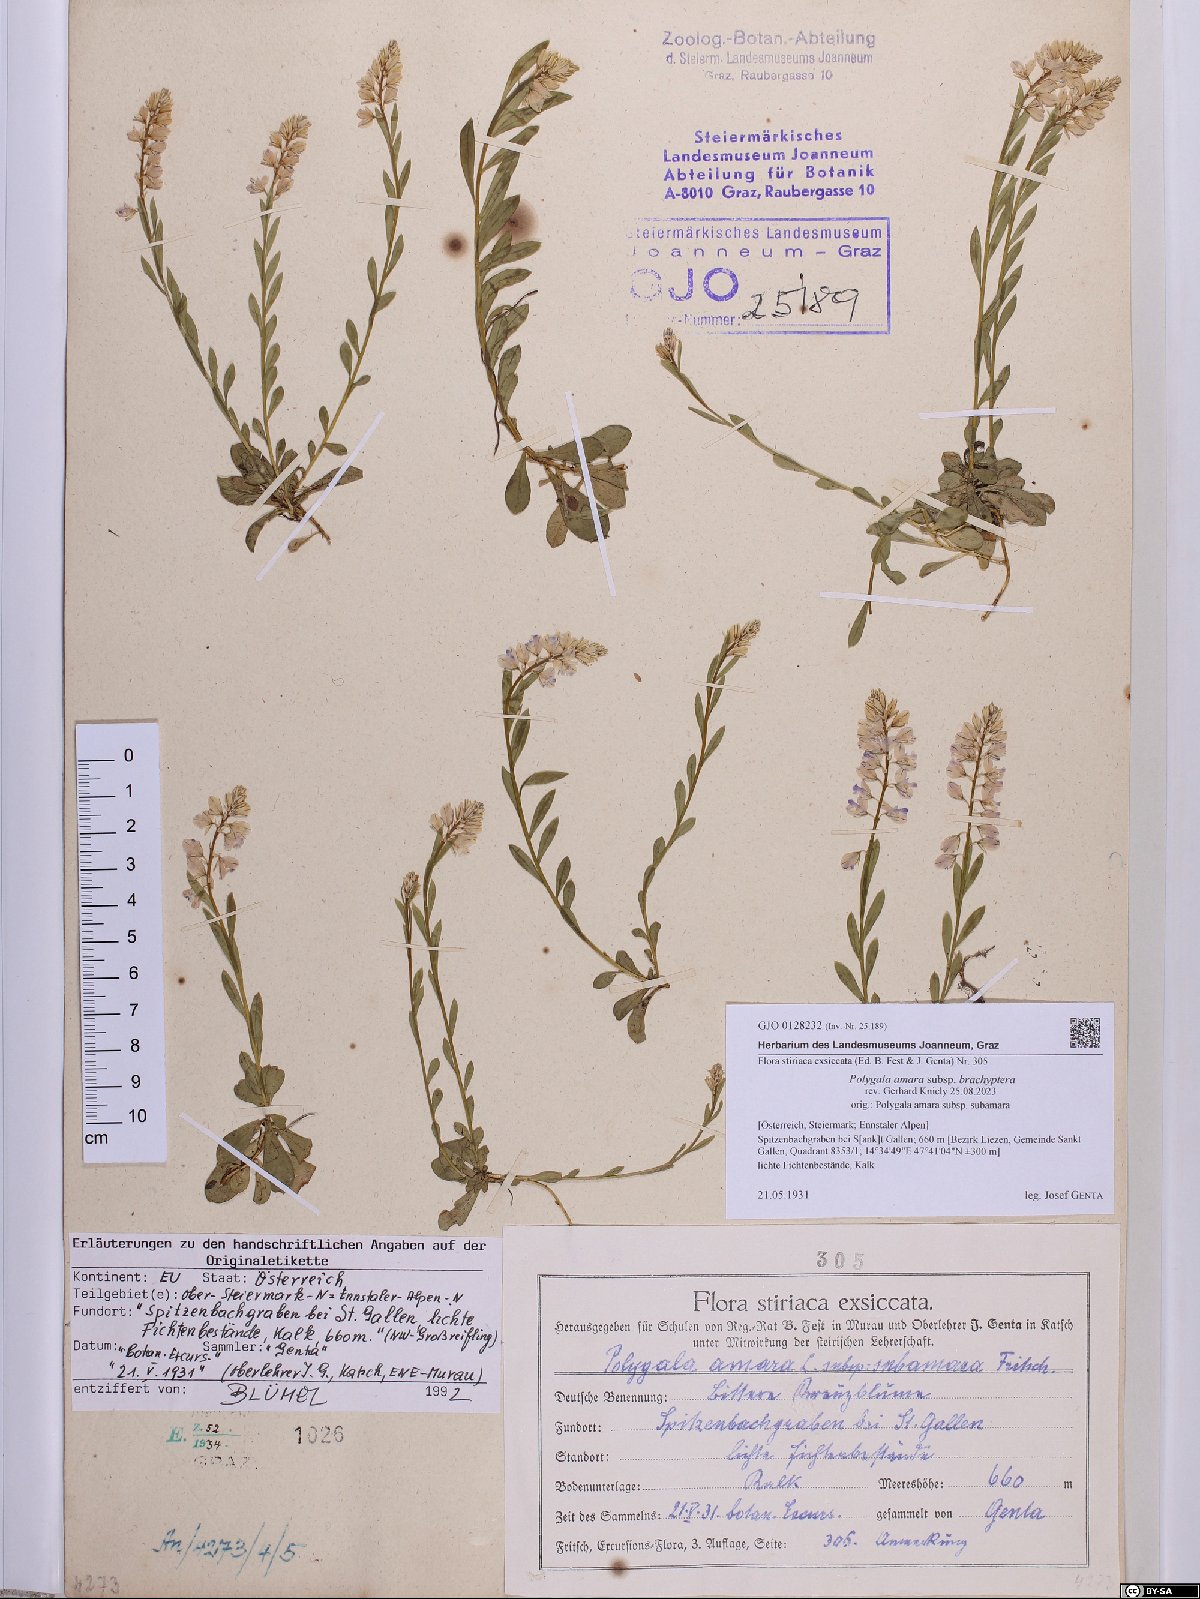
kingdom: Plantae
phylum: Tracheophyta
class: Magnoliopsida
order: Fabales
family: Polygalaceae
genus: Polygala
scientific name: Polygala amara
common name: Milkwort
